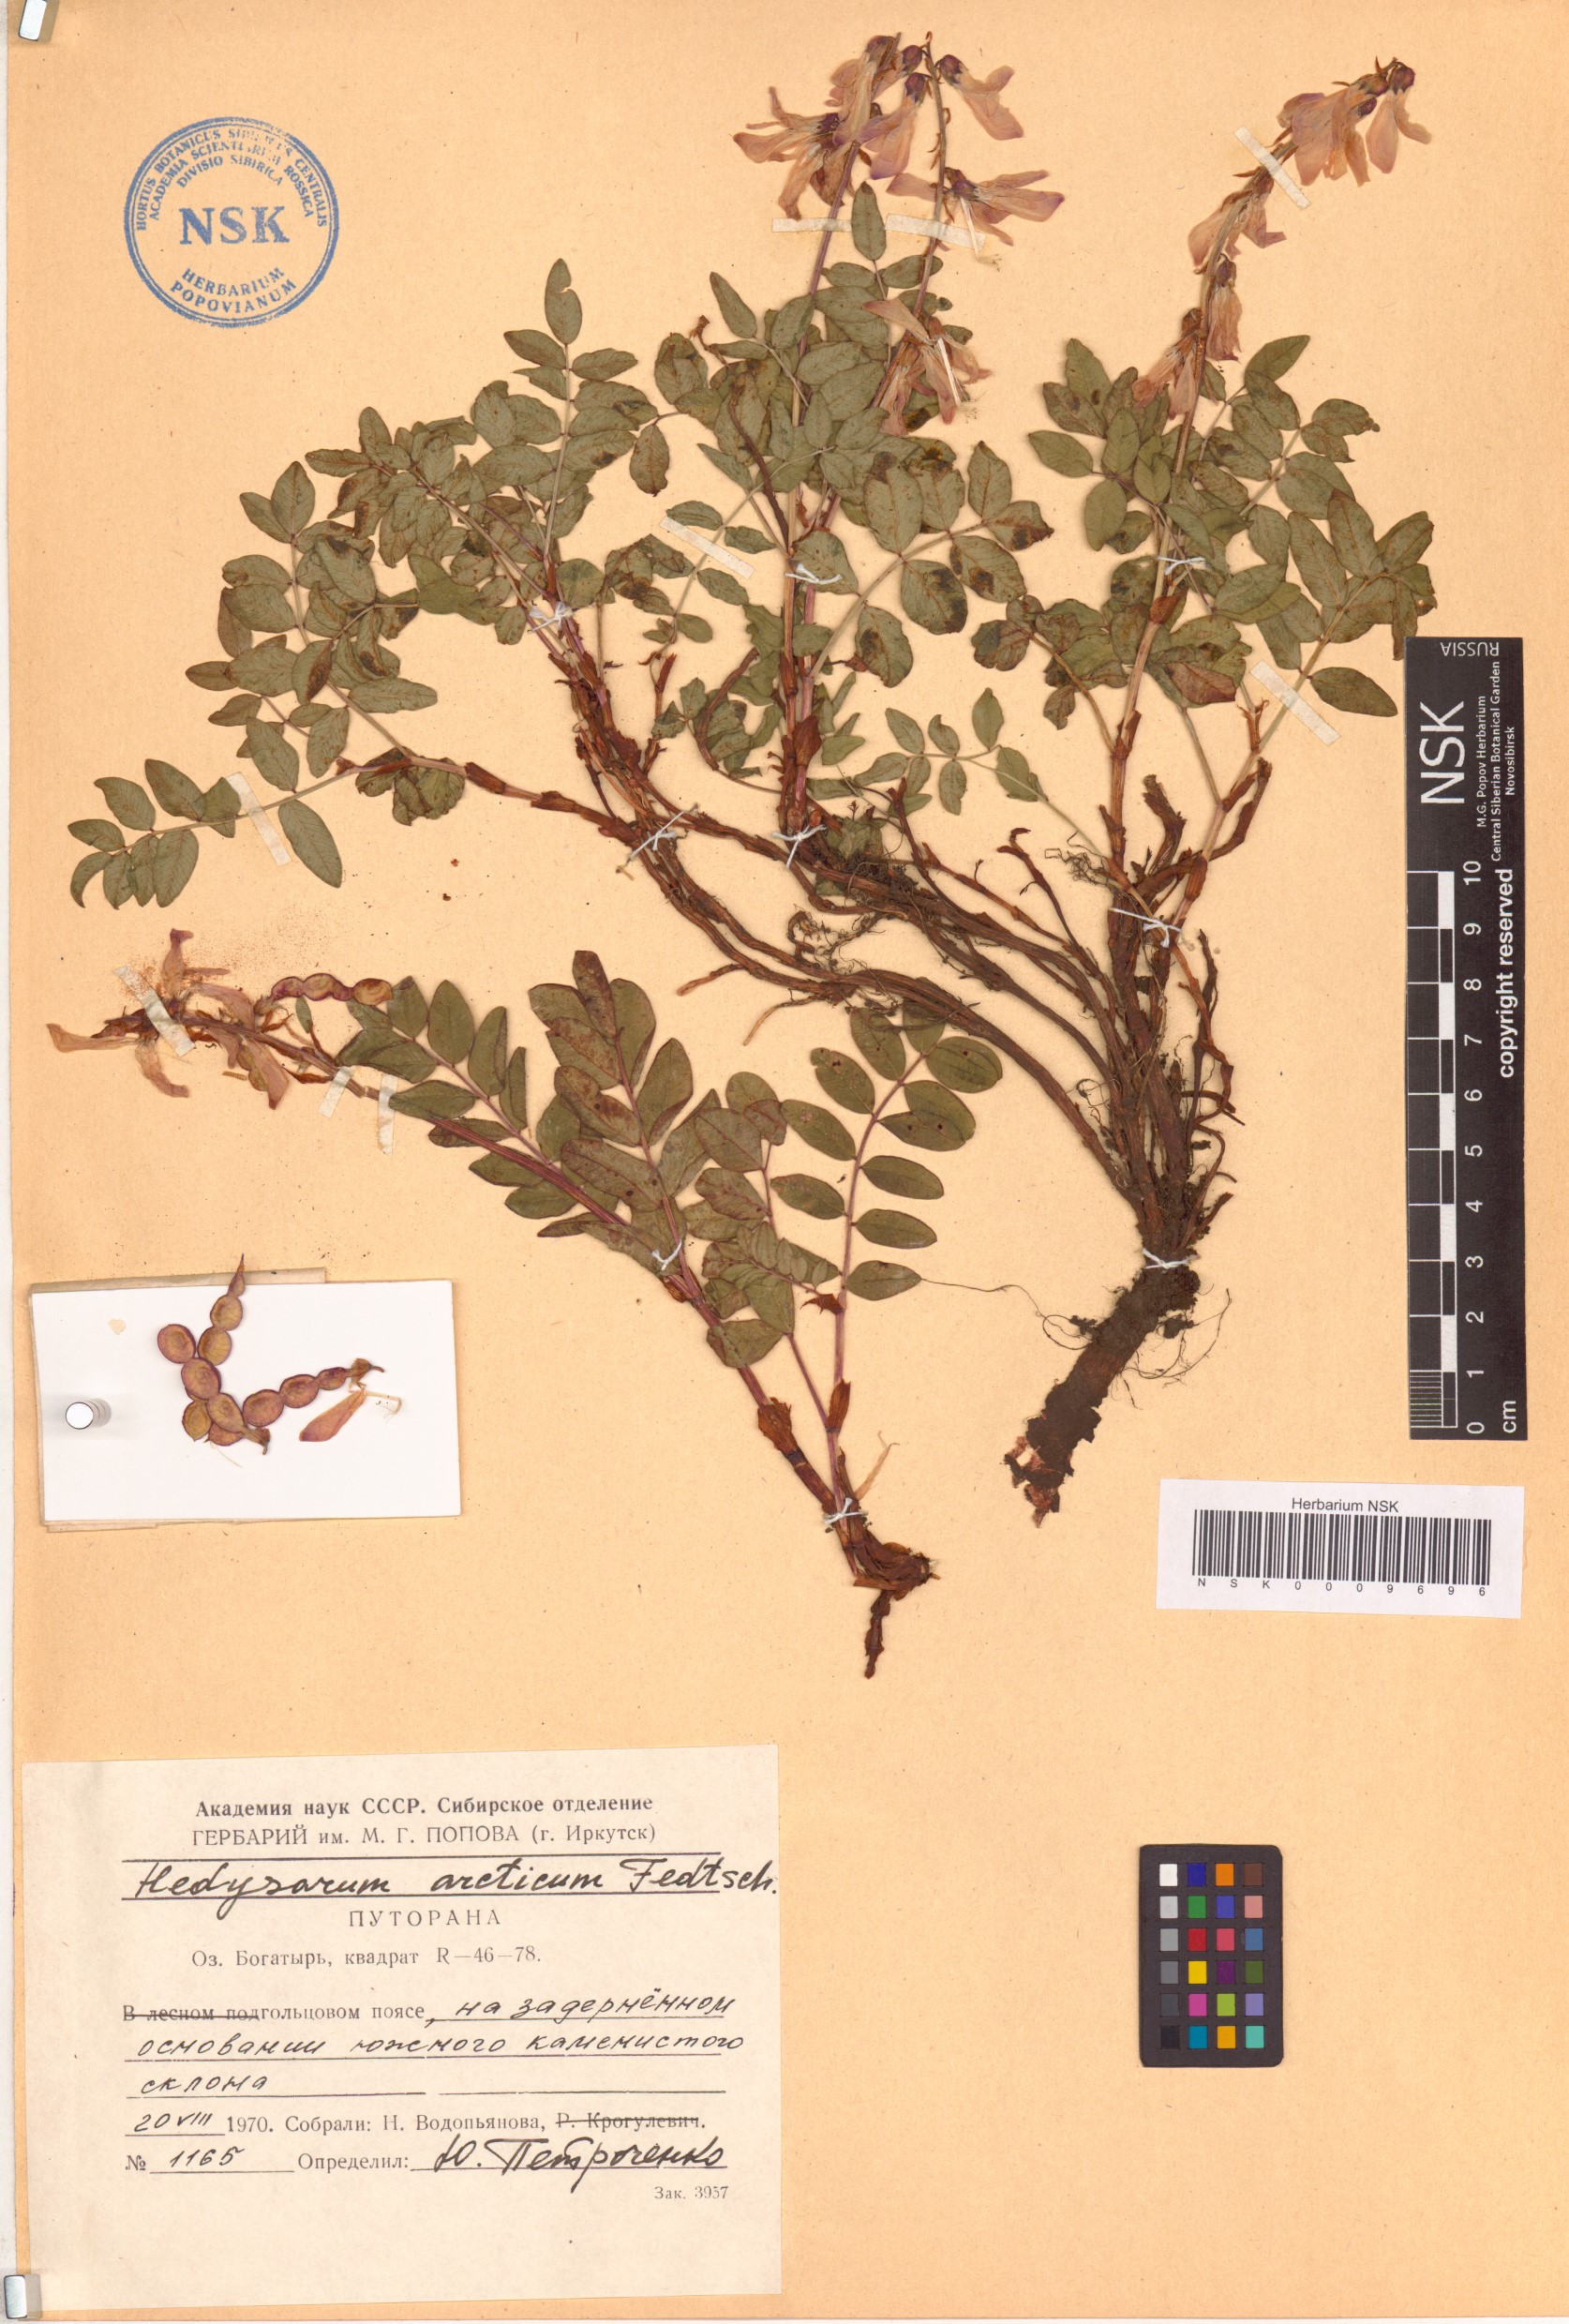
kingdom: Plantae
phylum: Tracheophyta
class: Magnoliopsida
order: Fabales
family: Fabaceae
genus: Hedysarum
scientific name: Hedysarum hedysaroides
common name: Alpine french-honeysuckle
